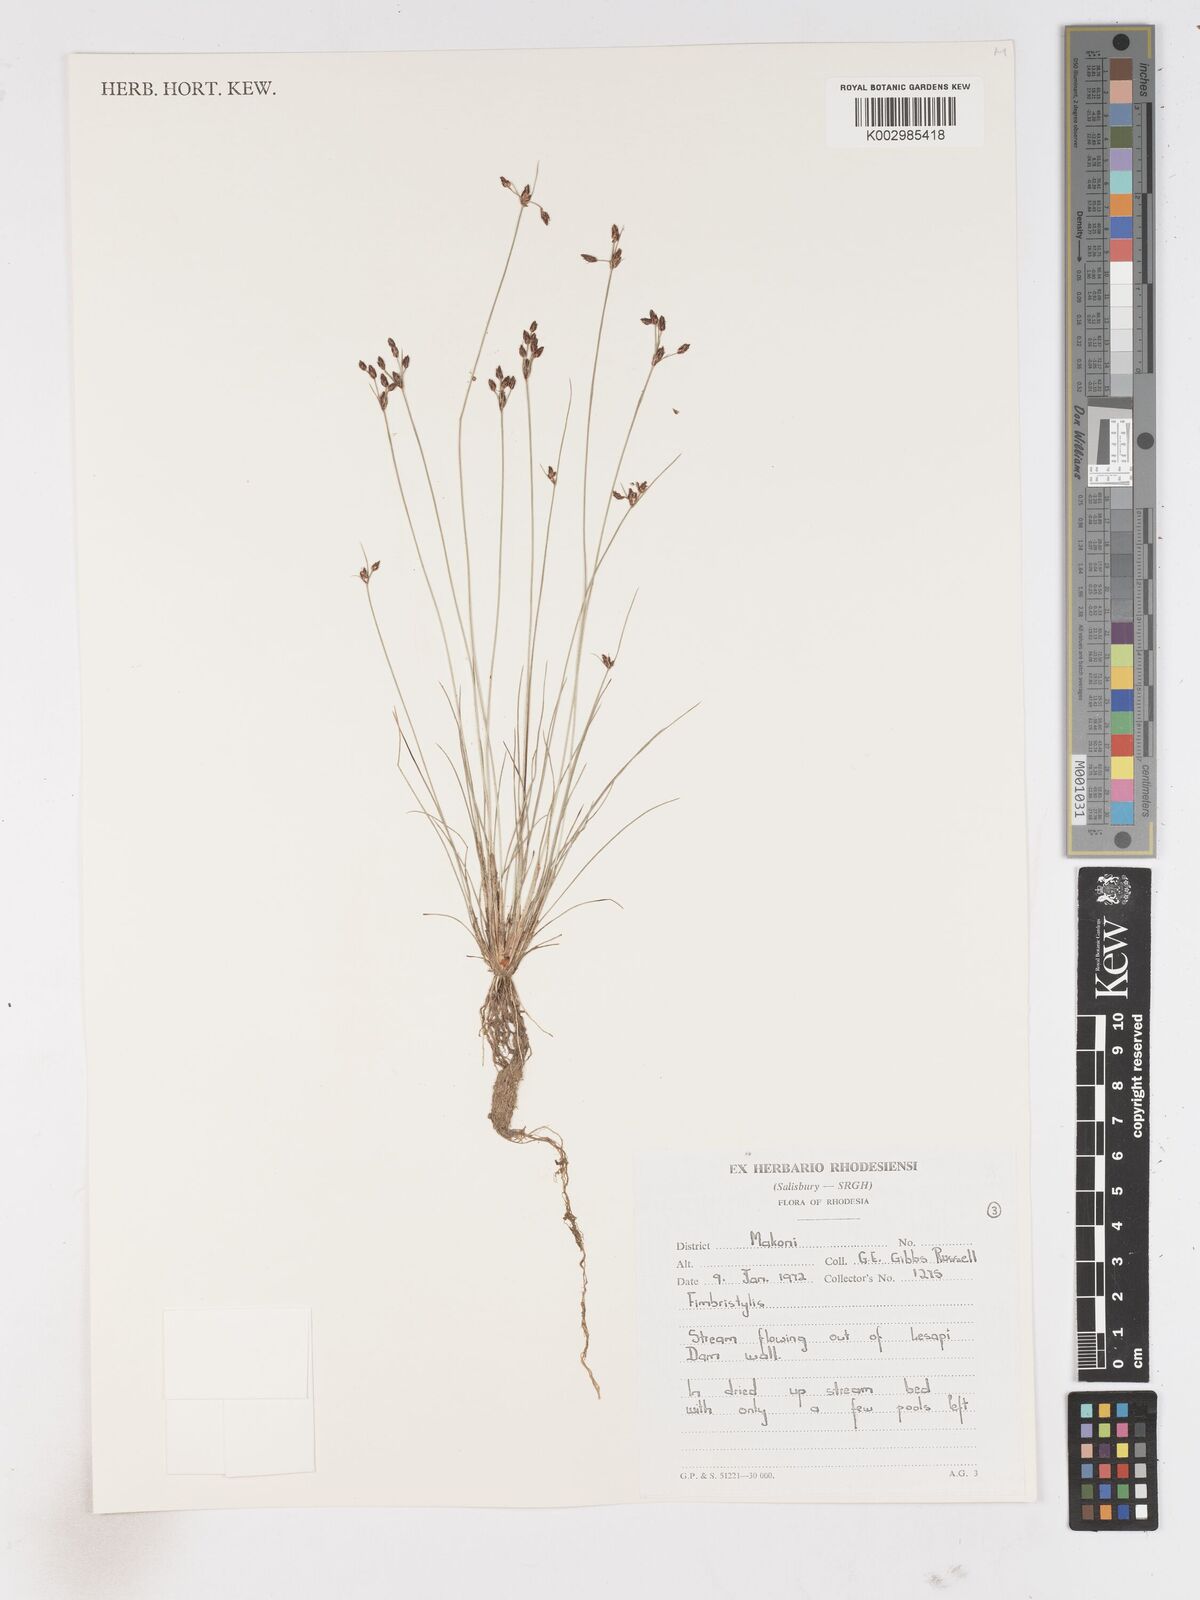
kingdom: Plantae
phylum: Tracheophyta
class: Liliopsida
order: Poales
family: Cyperaceae
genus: Fimbristylis
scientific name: Fimbristylis
